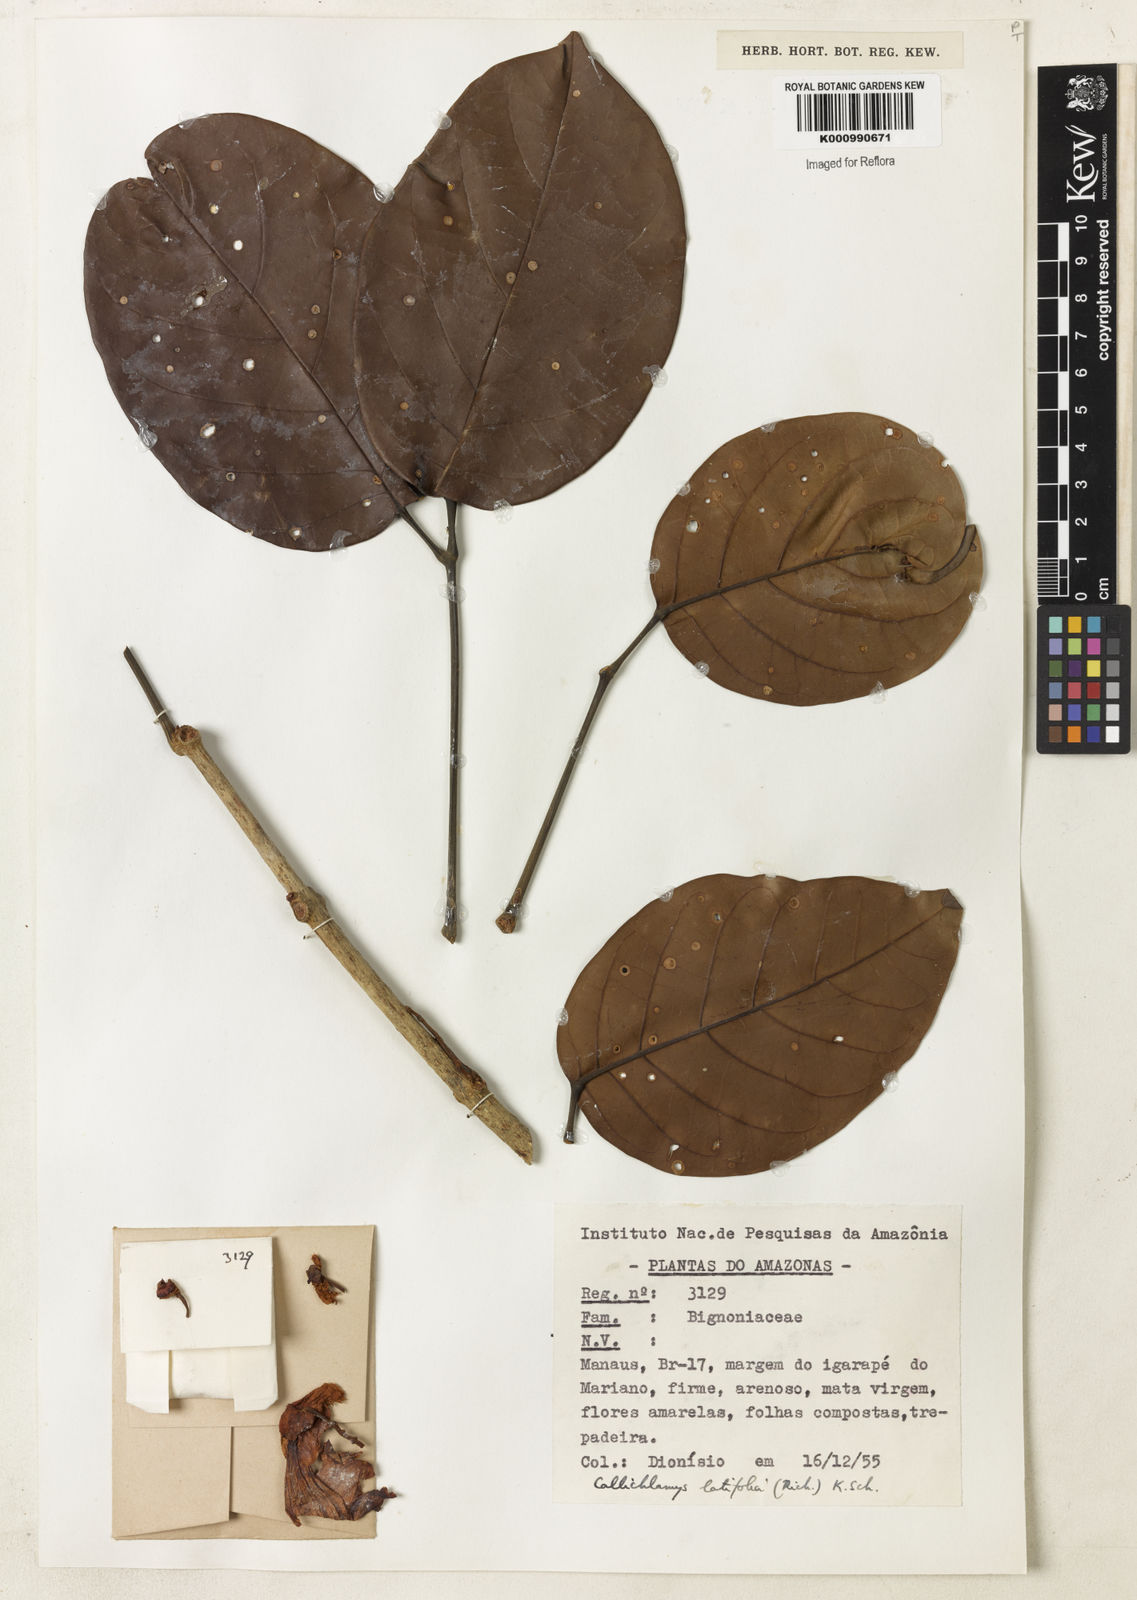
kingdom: Plantae
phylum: Tracheophyta
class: Magnoliopsida
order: Lamiales
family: Bignoniaceae
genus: Callichlamys
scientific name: Callichlamys latifolia
